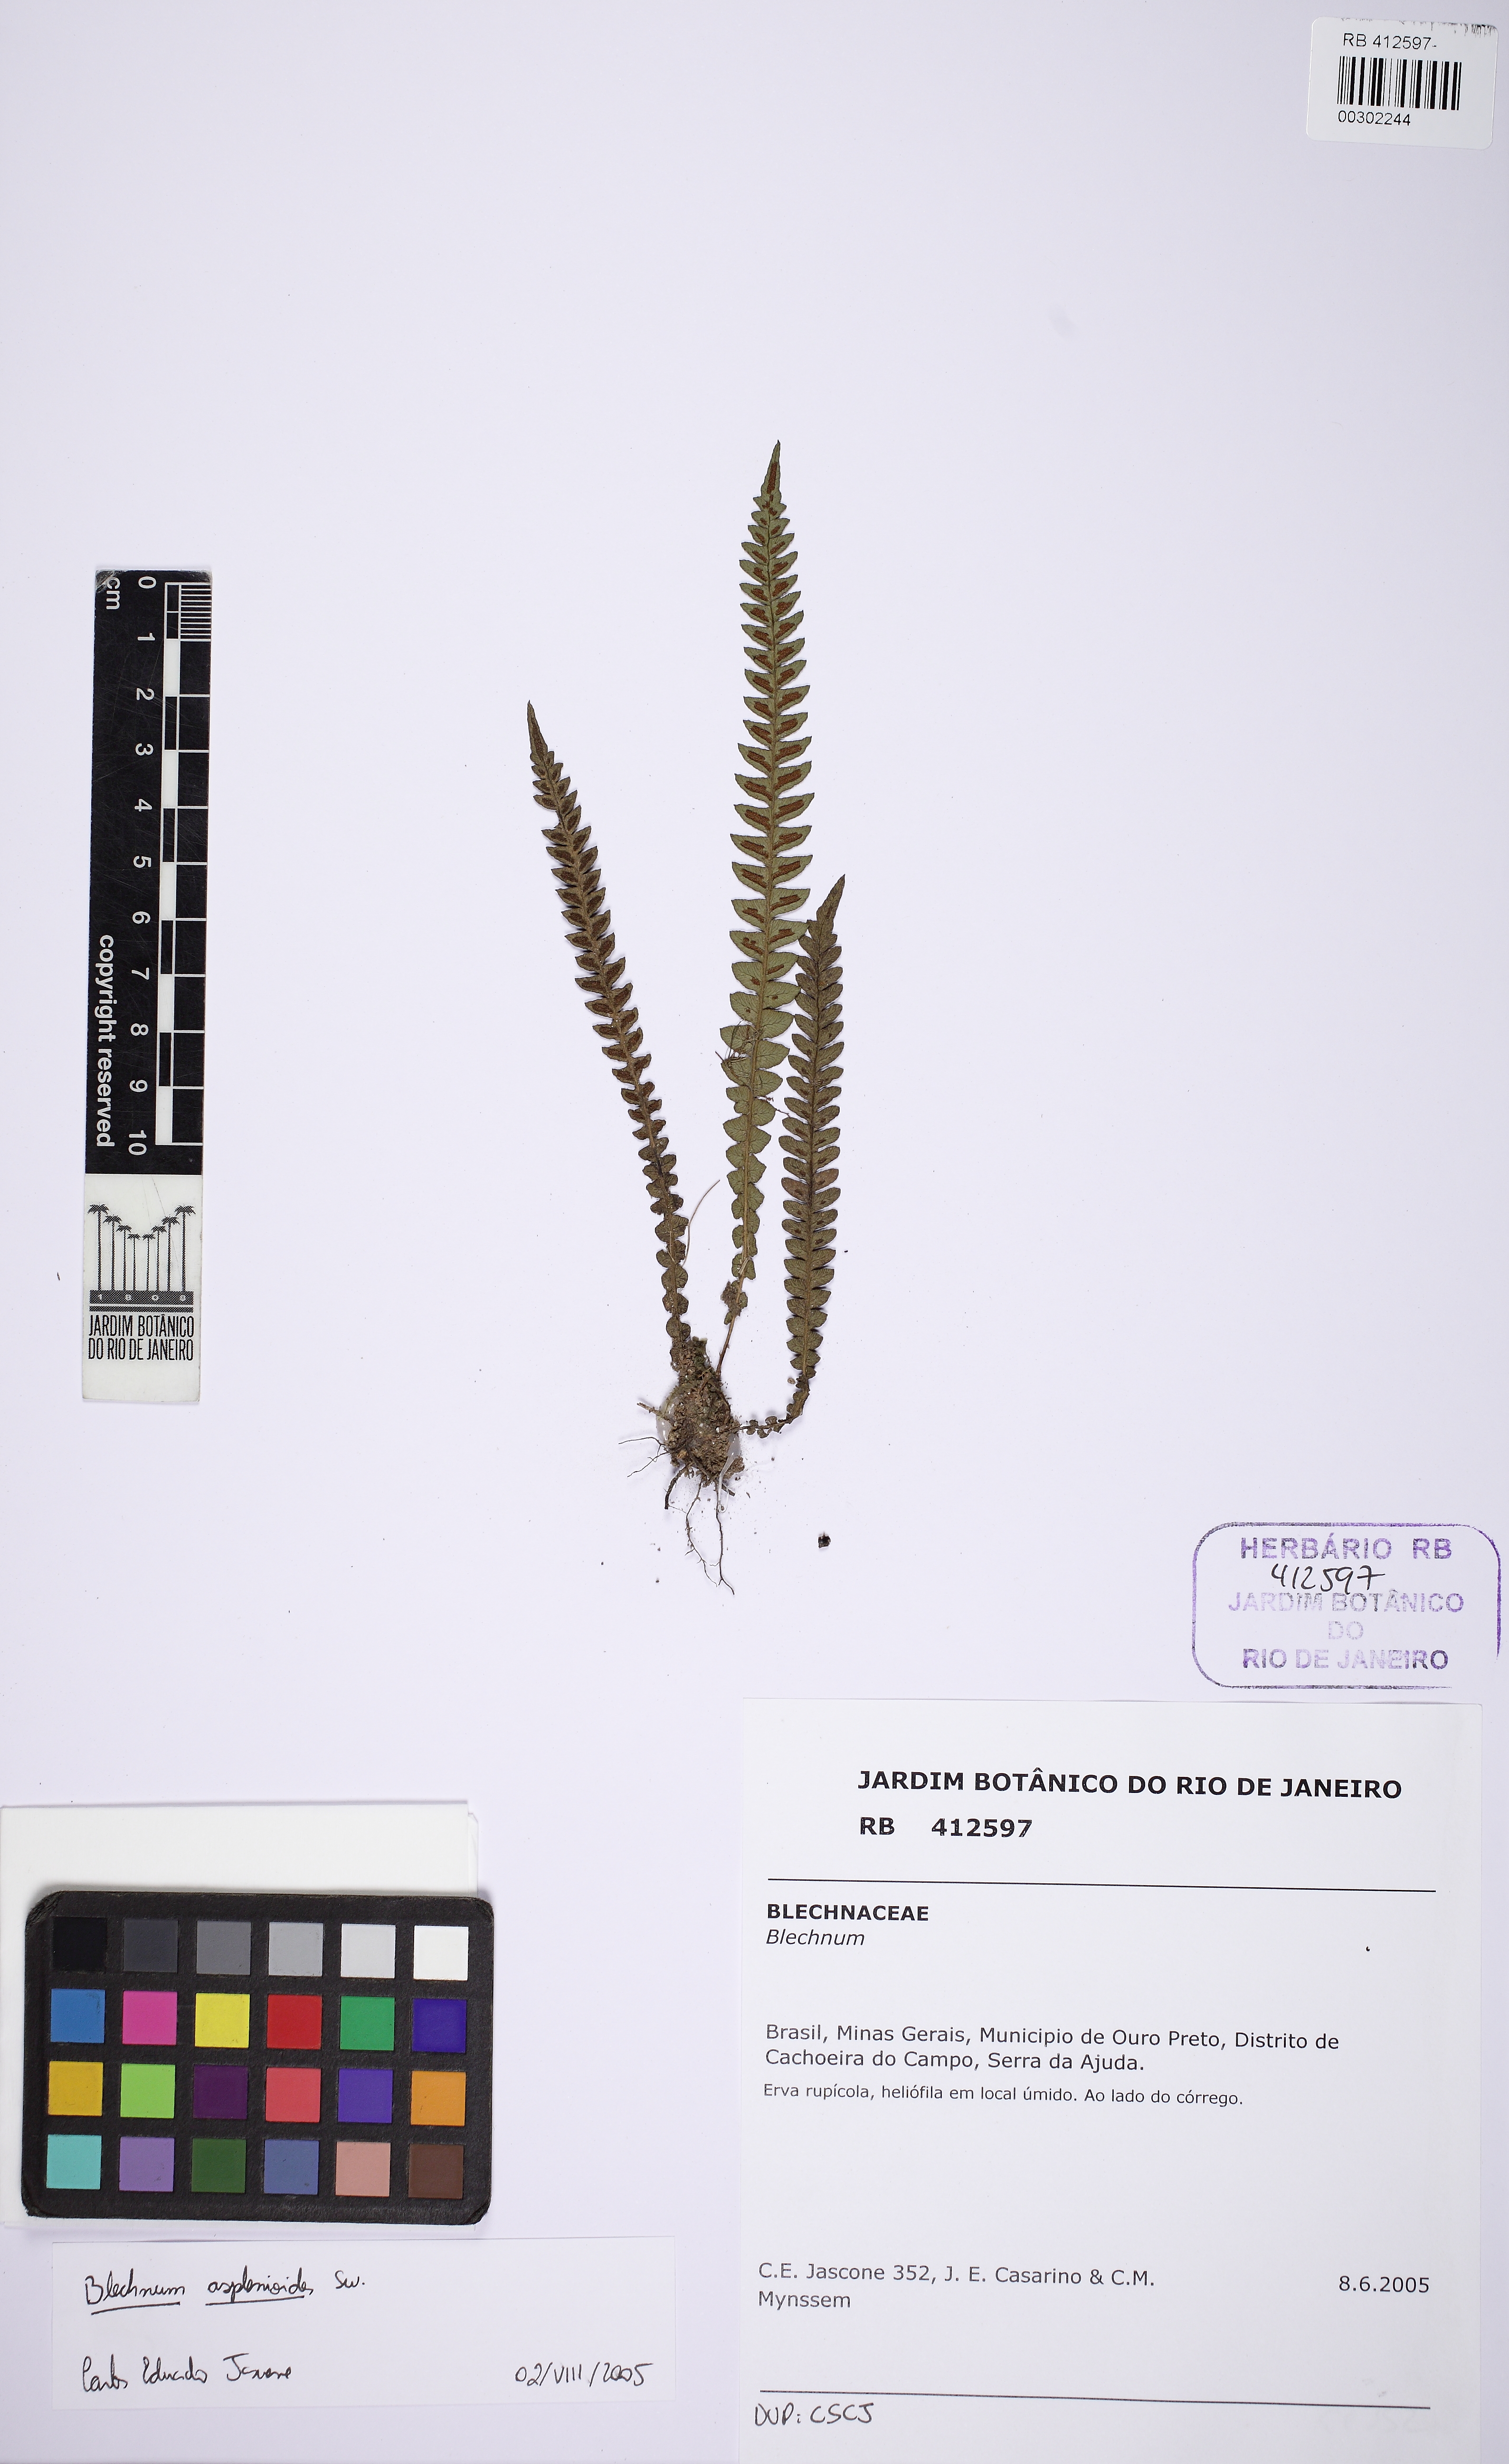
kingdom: Plantae
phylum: Tracheophyta
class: Polypodiopsida
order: Polypodiales
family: Blechnaceae
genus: Blechnum
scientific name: Blechnum asplenioides
